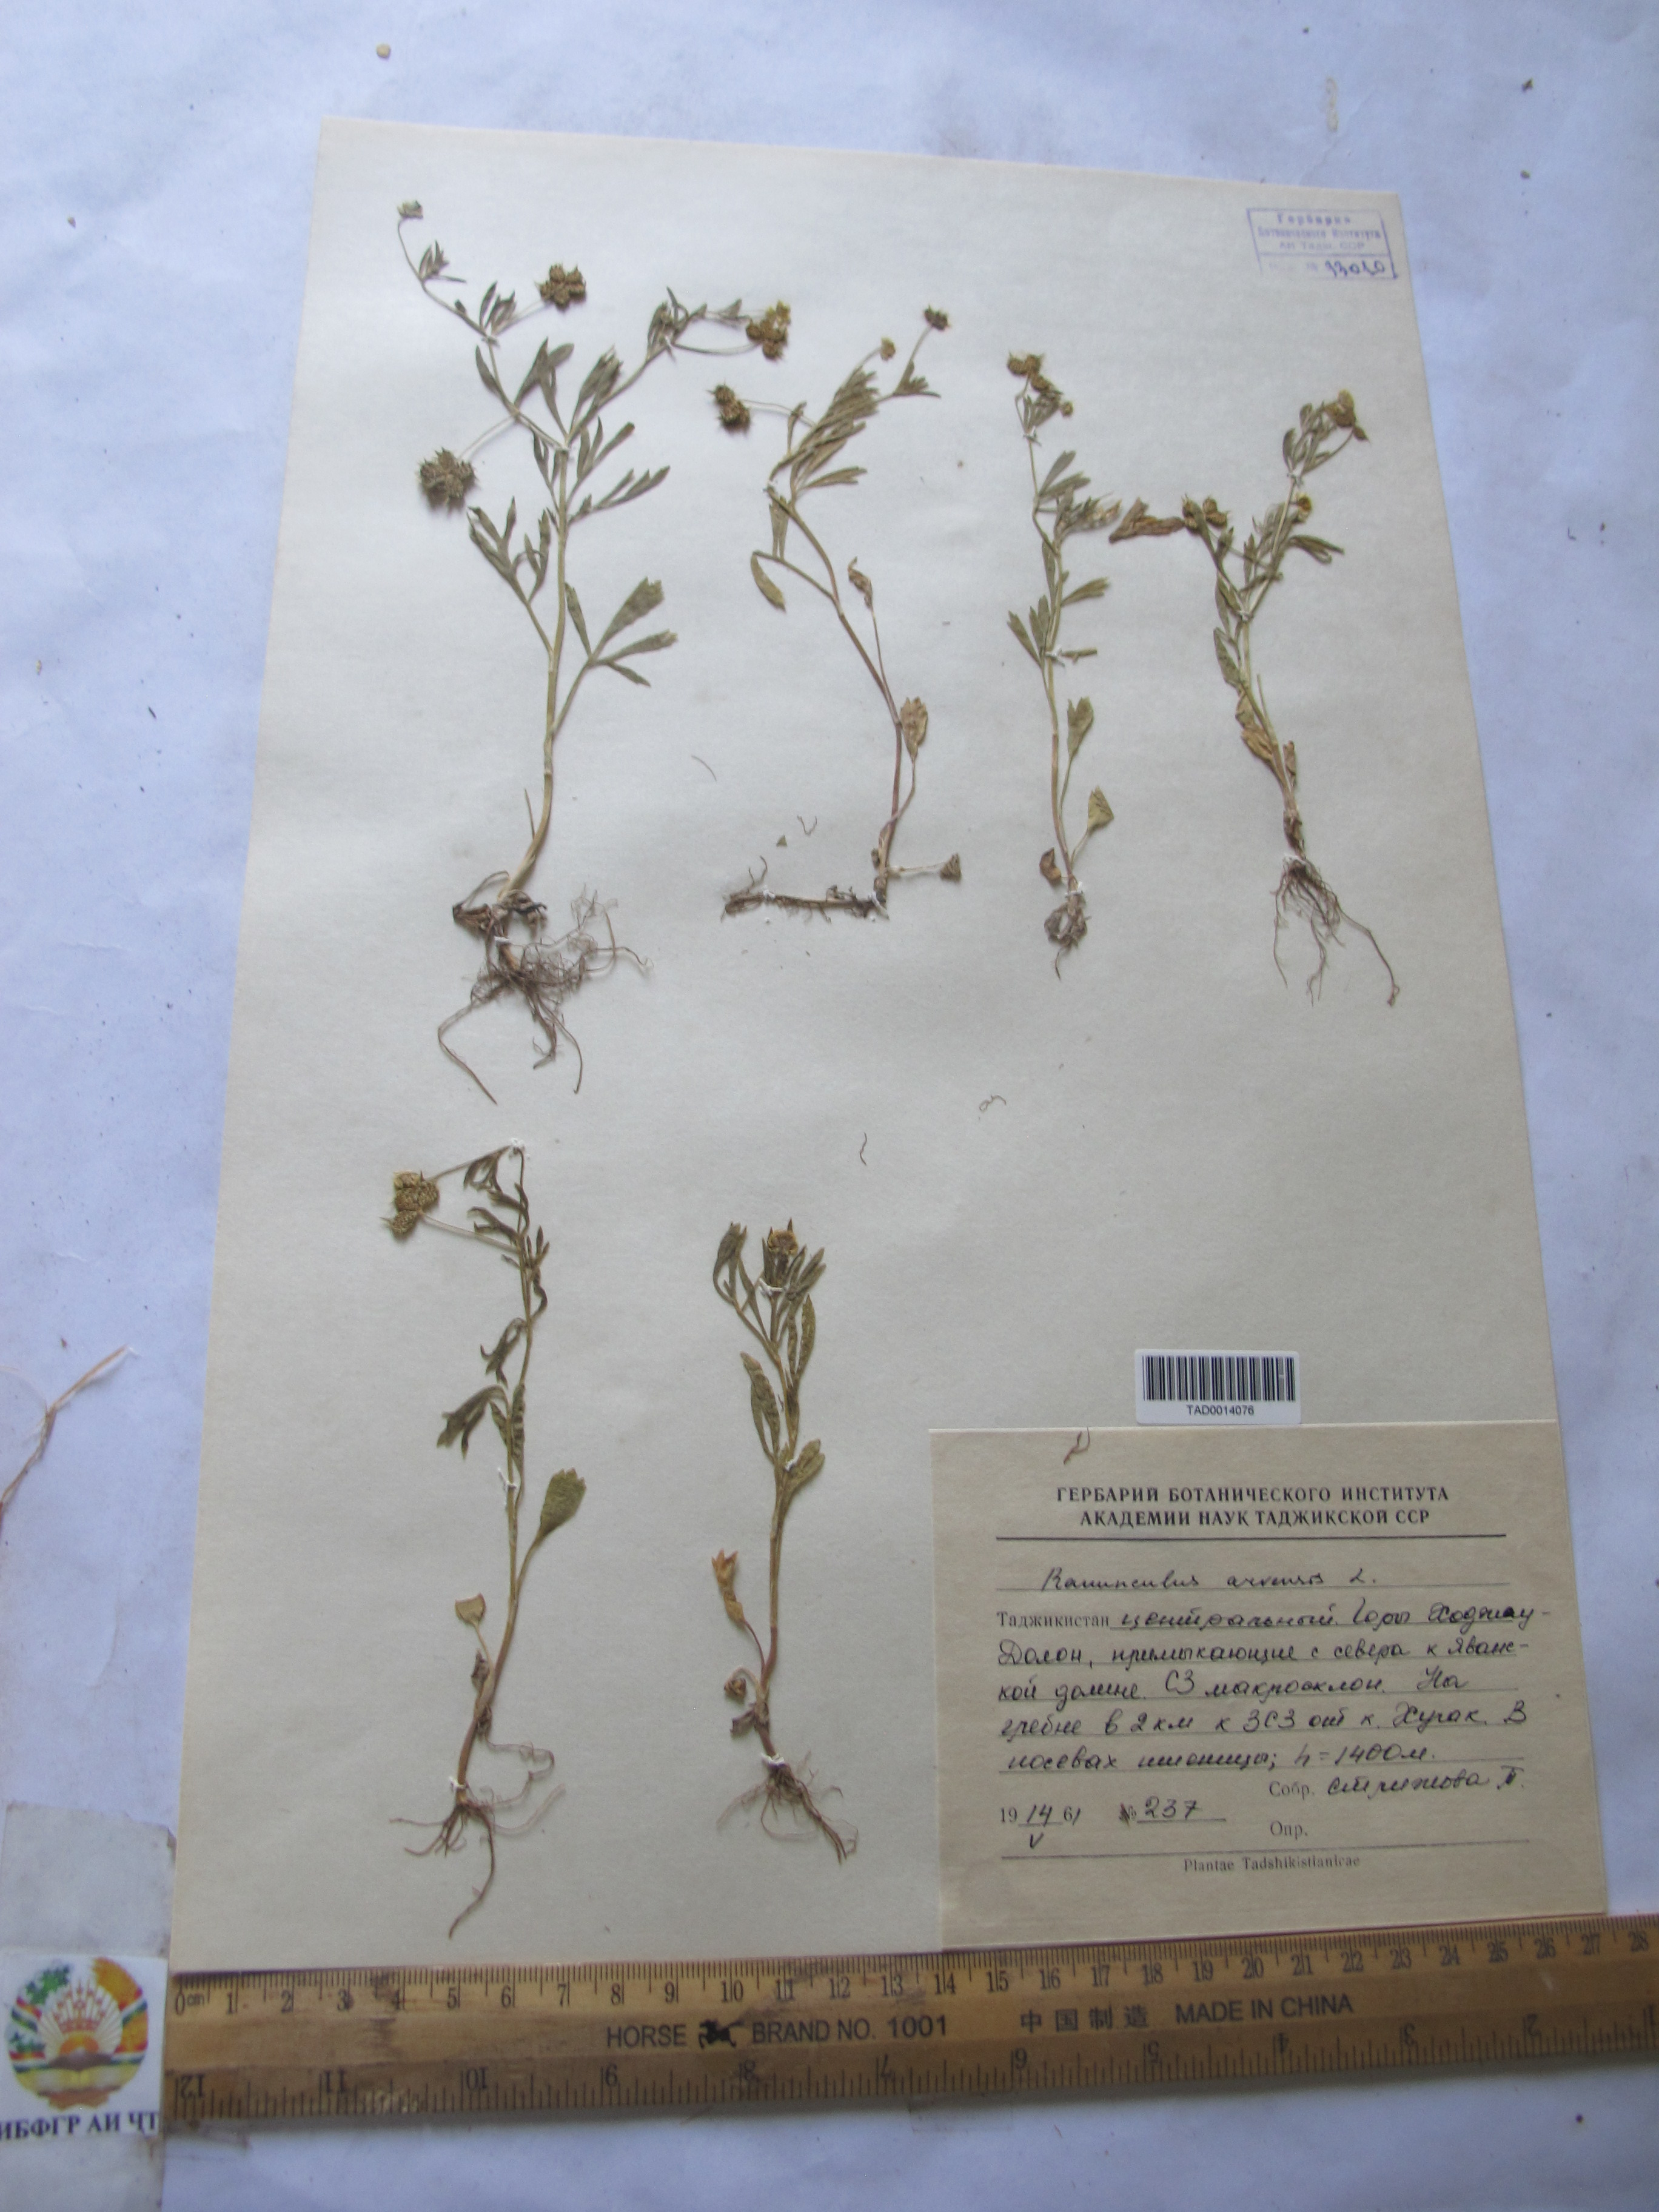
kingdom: Plantae
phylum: Tracheophyta
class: Magnoliopsida
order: Ranunculales
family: Ranunculaceae
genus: Ranunculus
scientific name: Ranunculus arvensis
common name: Corn buttercup
